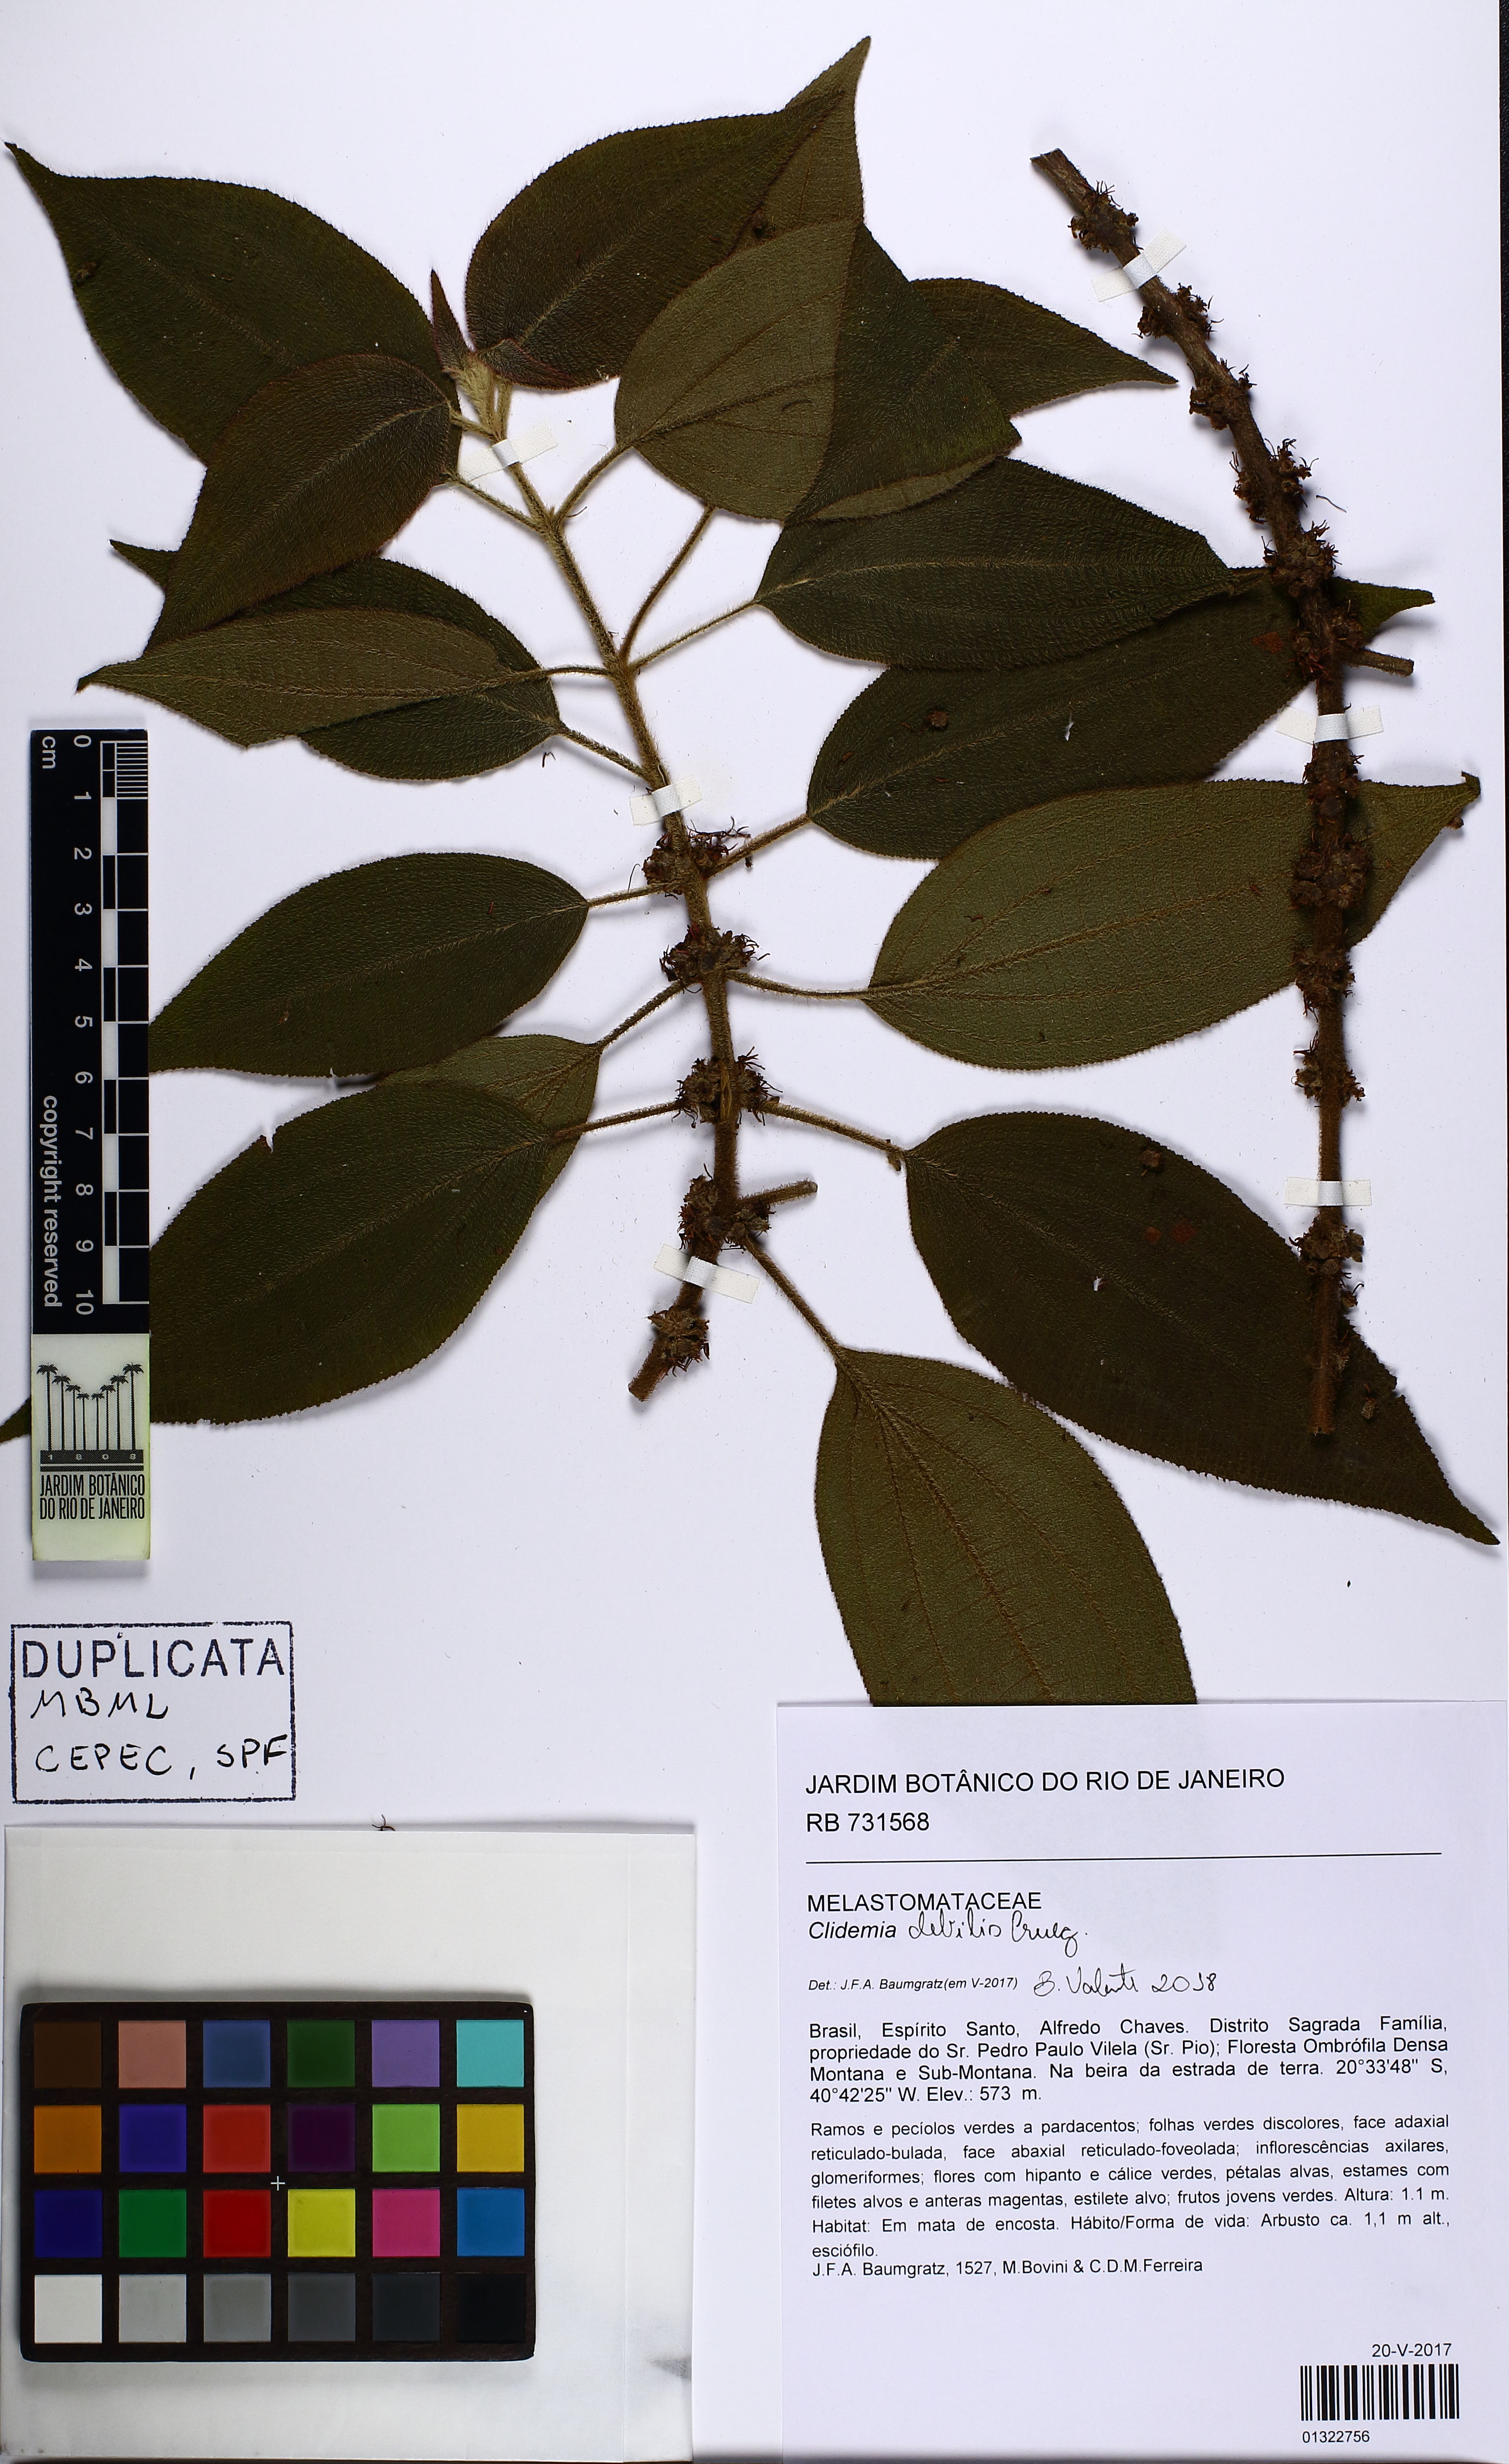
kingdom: Plantae
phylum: Tracheophyta
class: Magnoliopsida
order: Myrtales
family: Melastomataceae
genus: Miconia
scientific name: Miconia debilis
